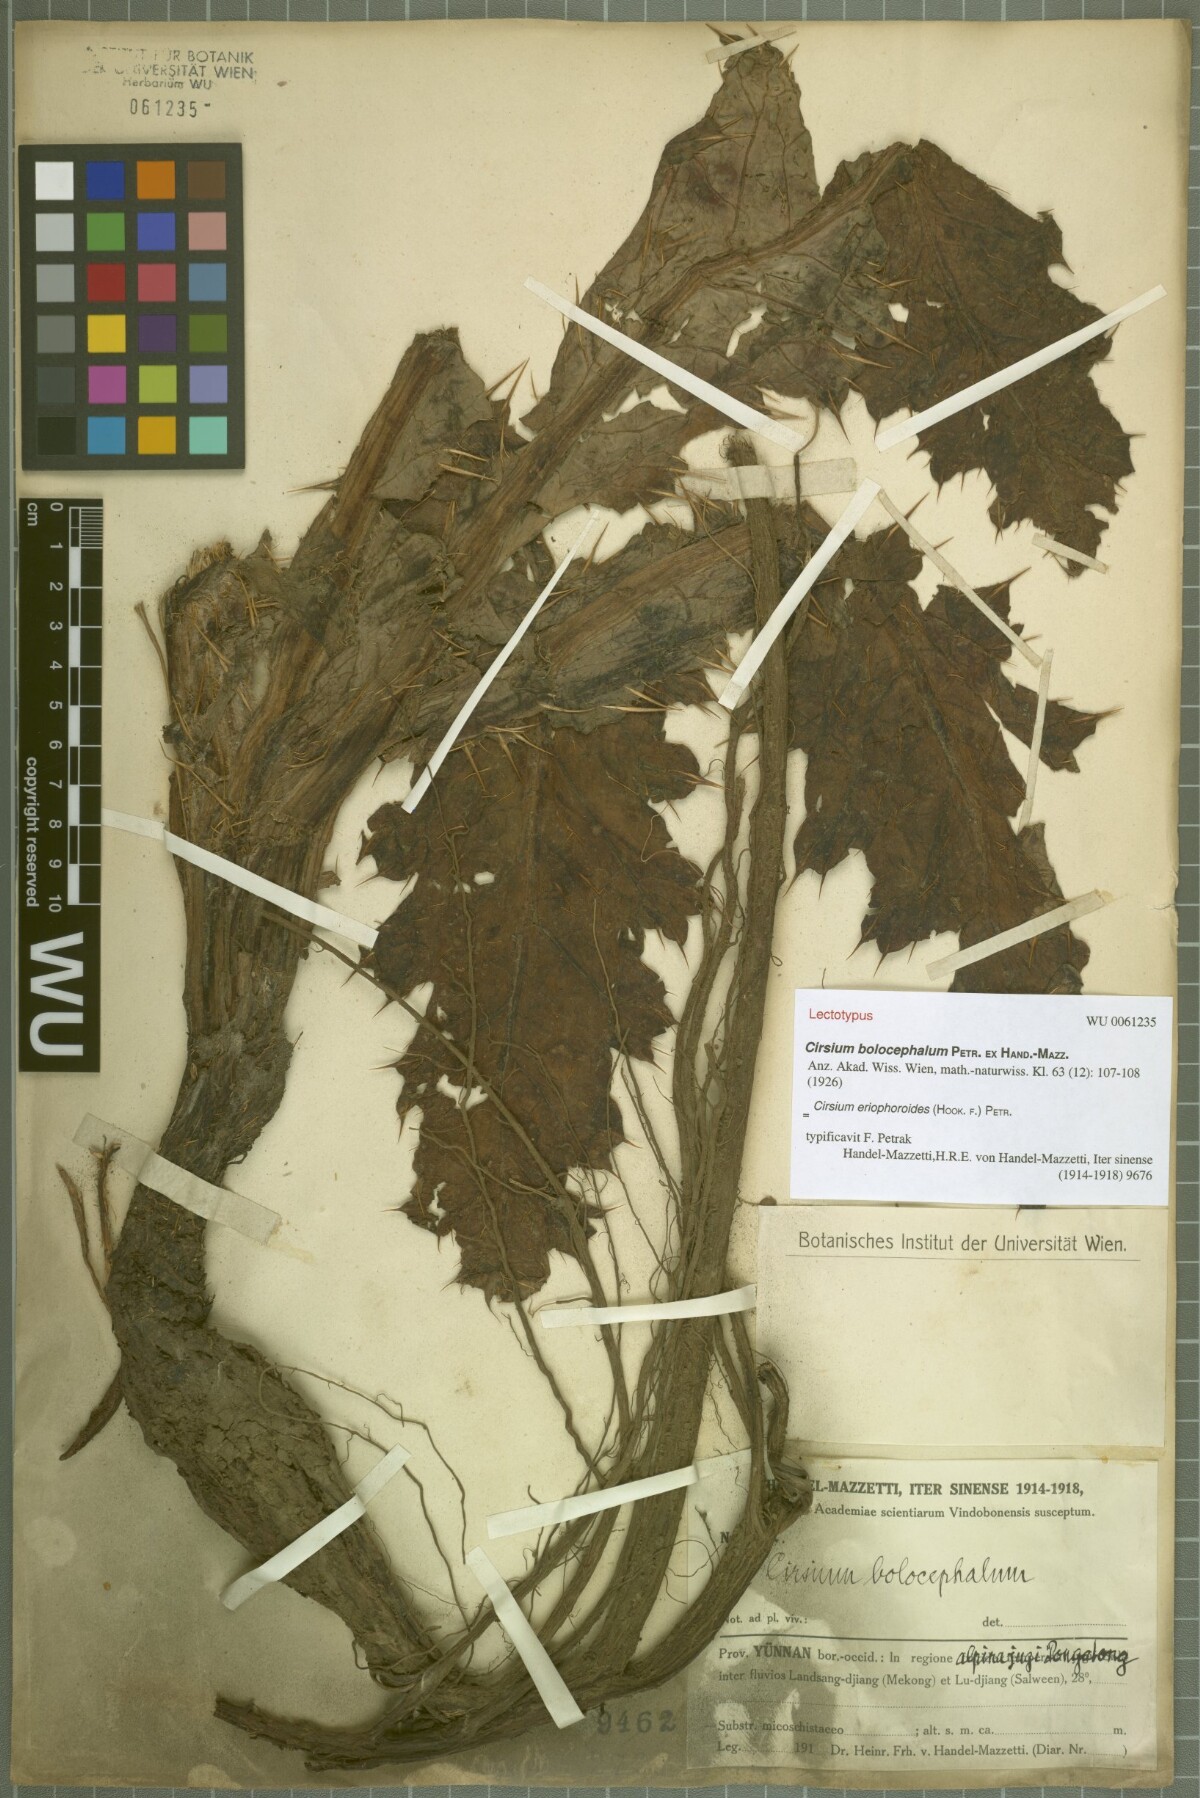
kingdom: Plantae
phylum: Tracheophyta
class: Magnoliopsida
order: Asterales
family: Asteraceae
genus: Cirsium
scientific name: Cirsium eriophoroides
